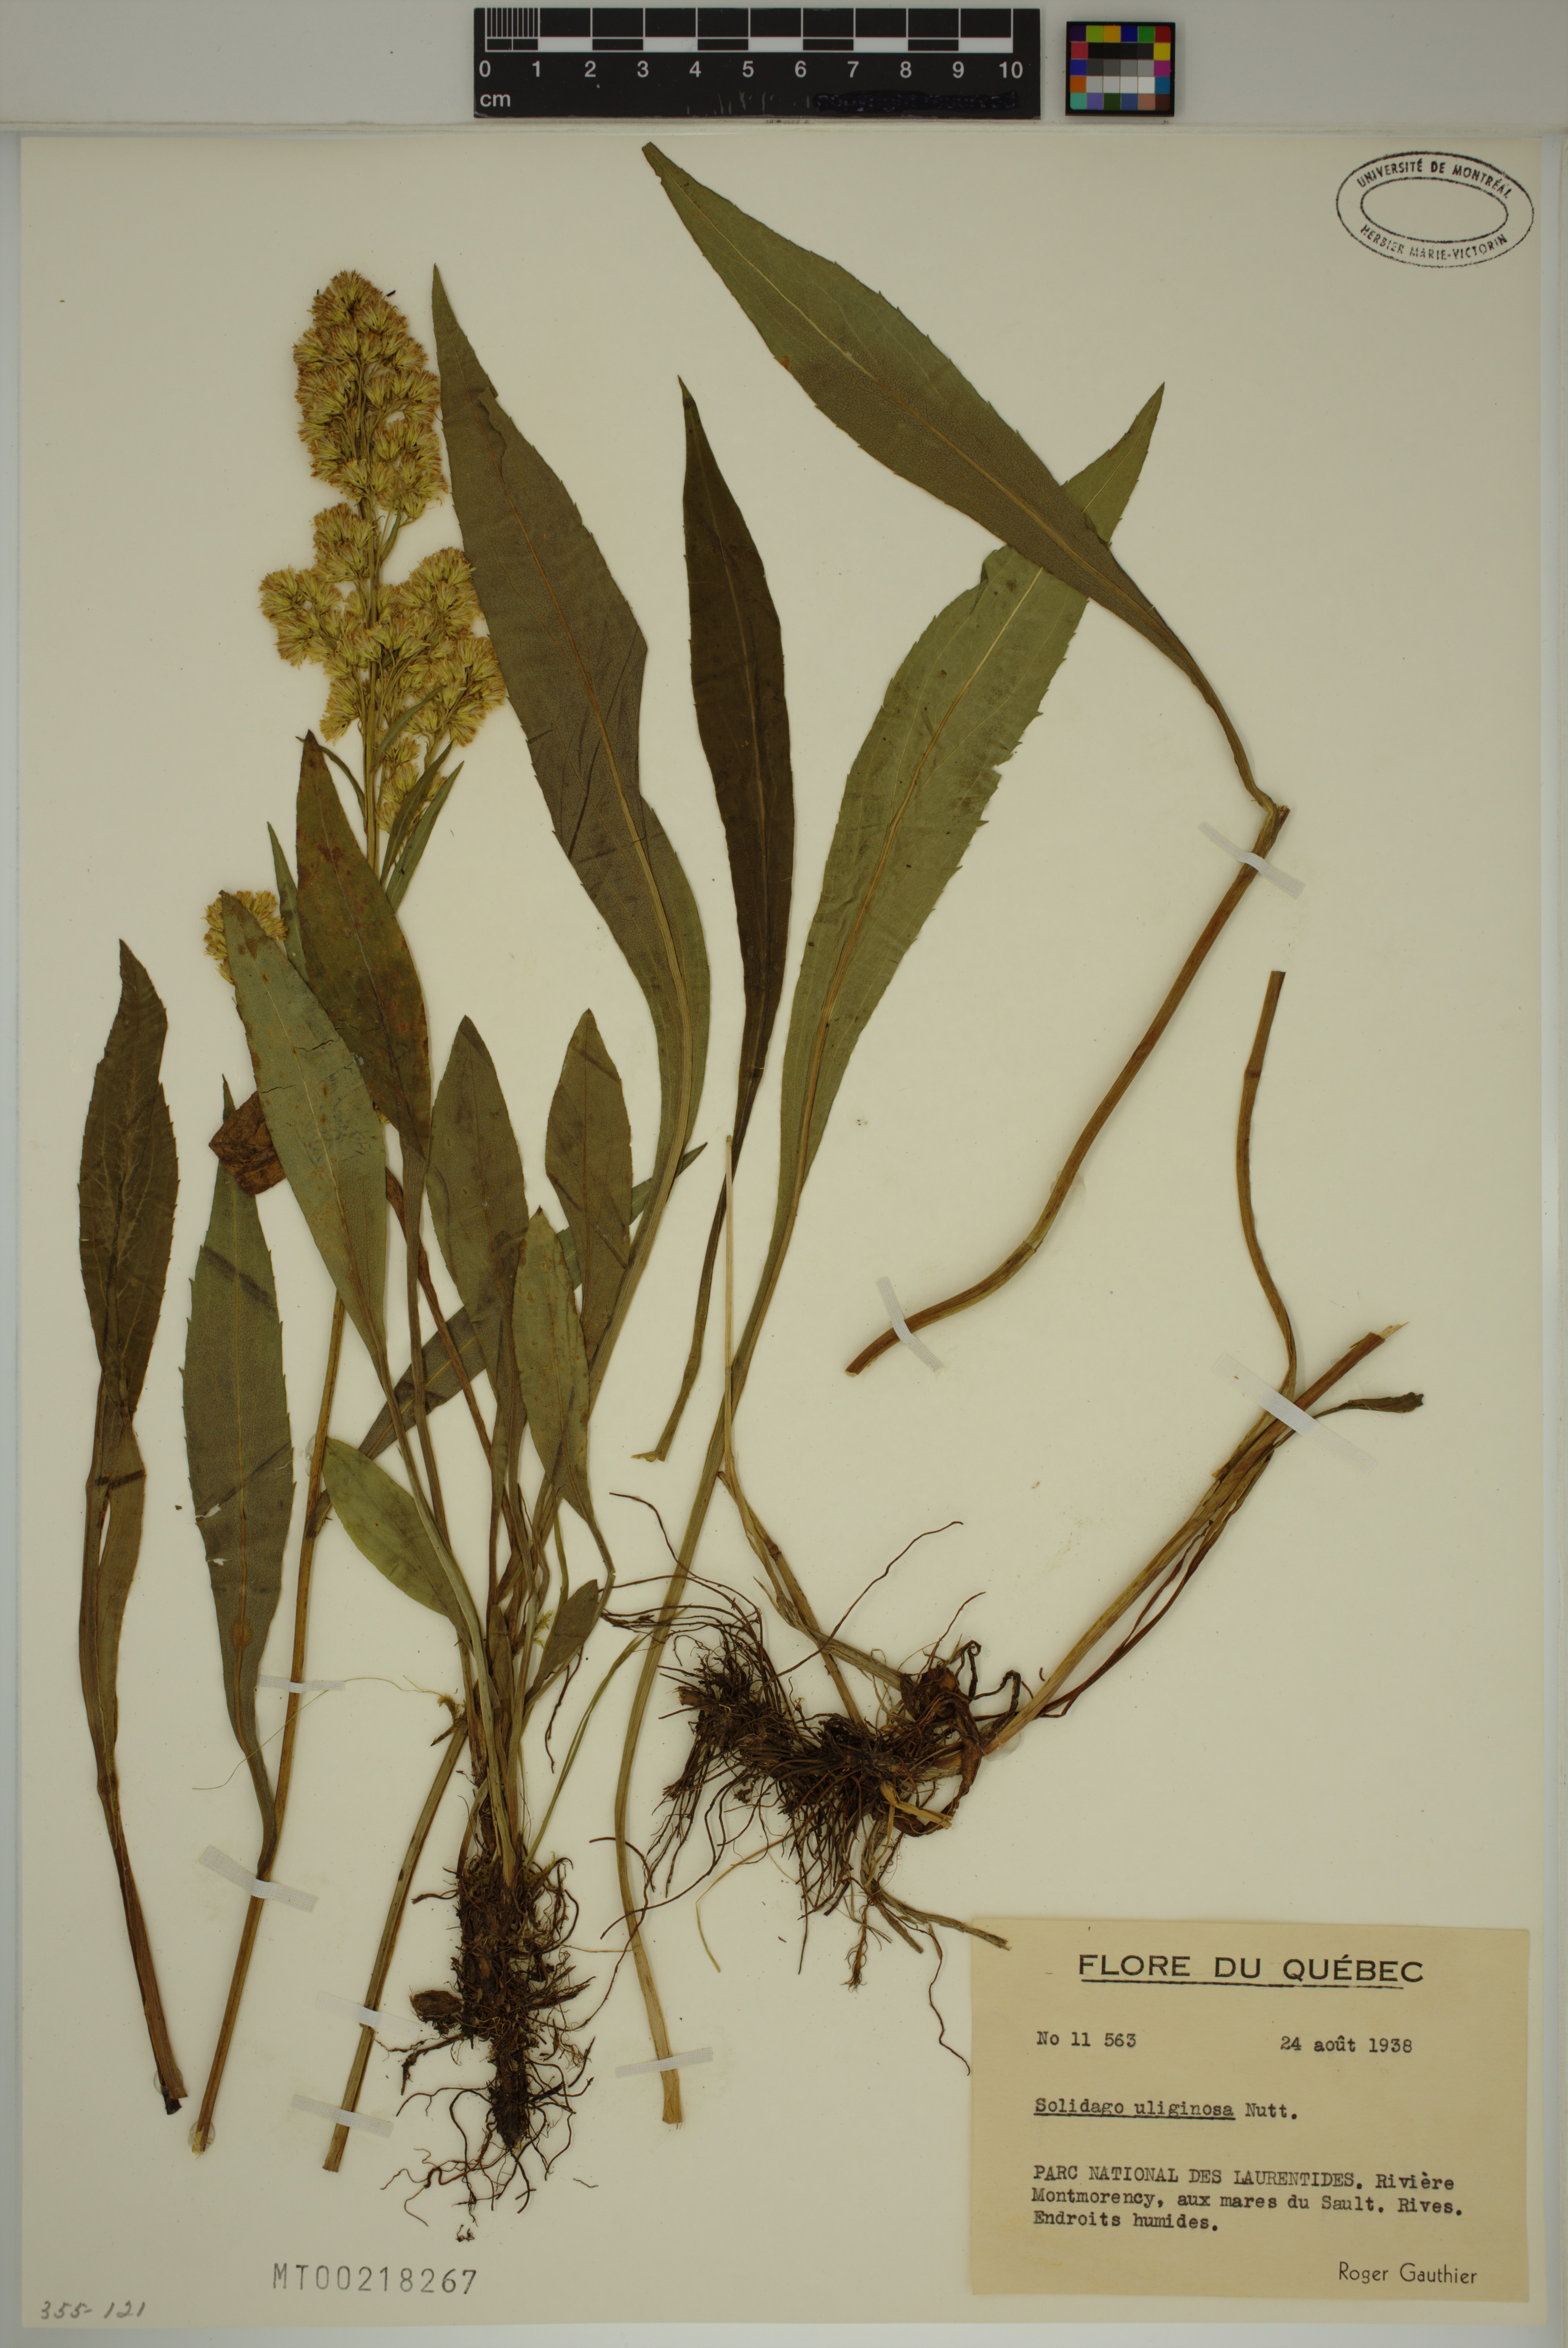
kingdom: Plantae
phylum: Tracheophyta
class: Magnoliopsida
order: Asterales
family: Asteraceae
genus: Solidago
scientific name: Solidago uliginosa
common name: Bog goldenrod
